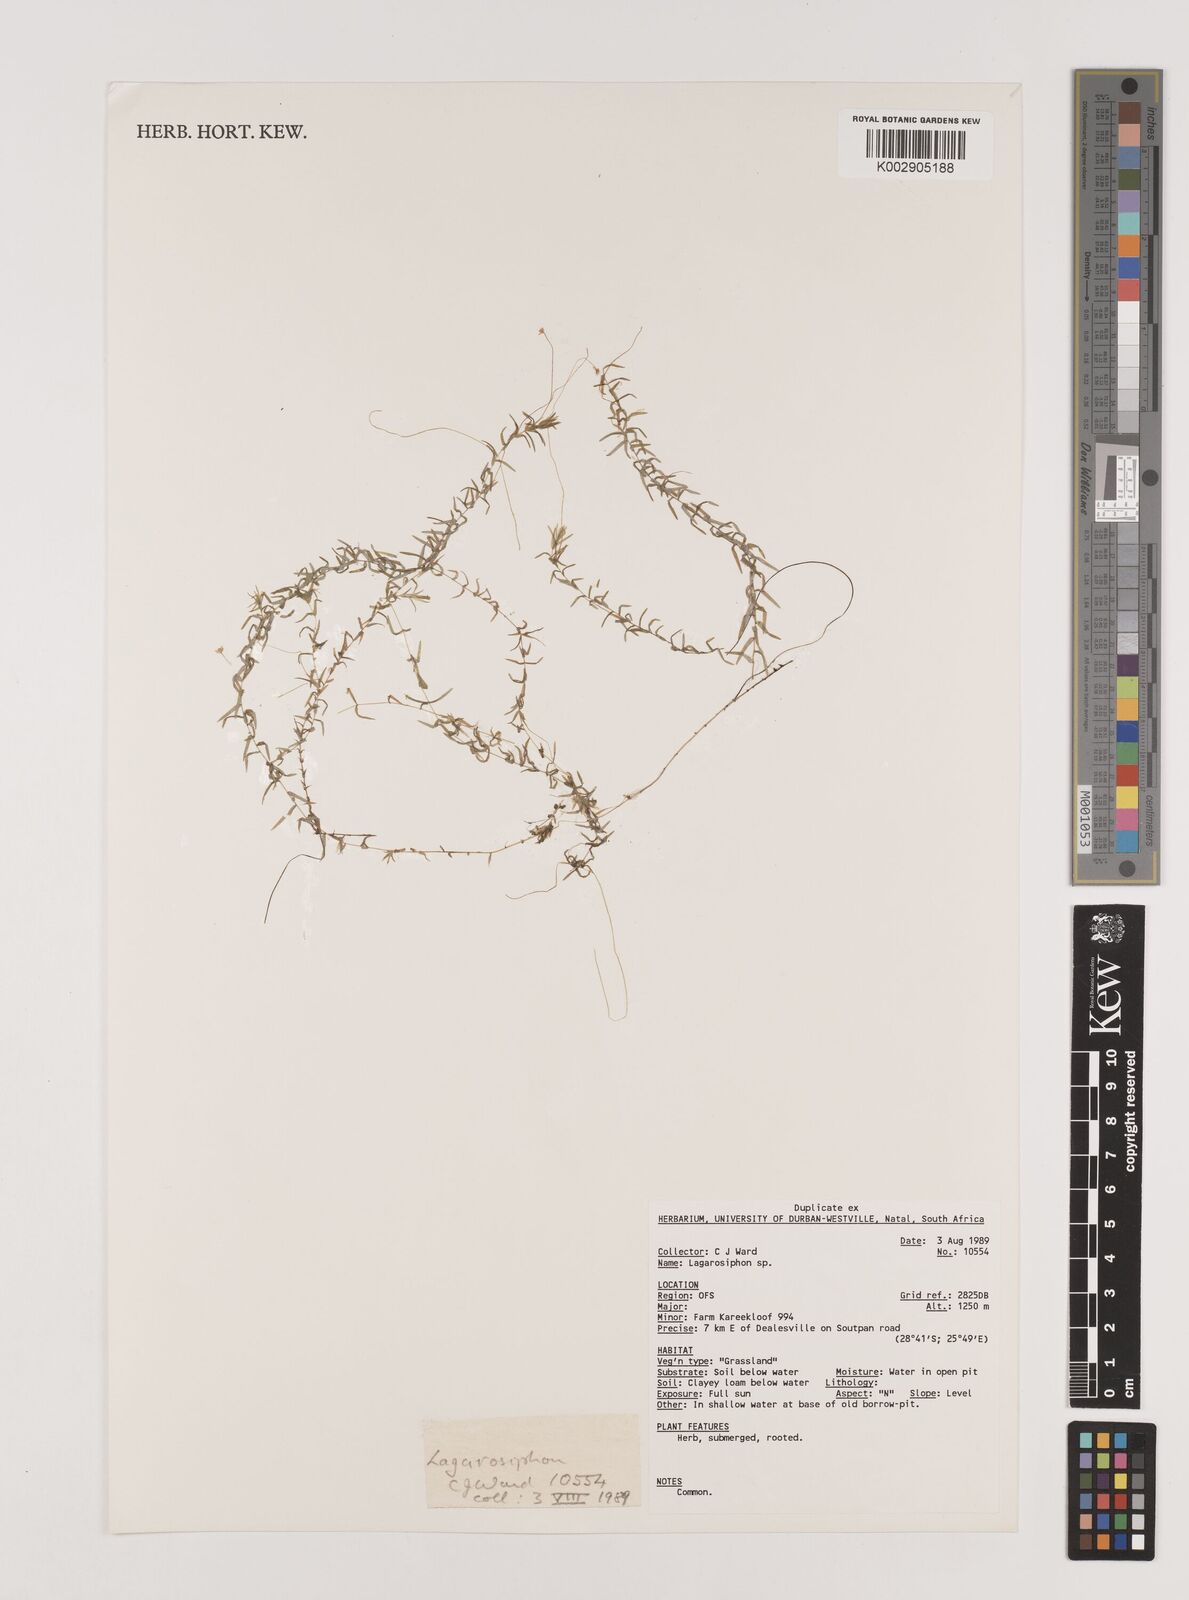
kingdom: Plantae
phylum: Tracheophyta
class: Liliopsida
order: Alismatales
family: Hydrocharitaceae
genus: Lagarosiphon
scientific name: Lagarosiphon
